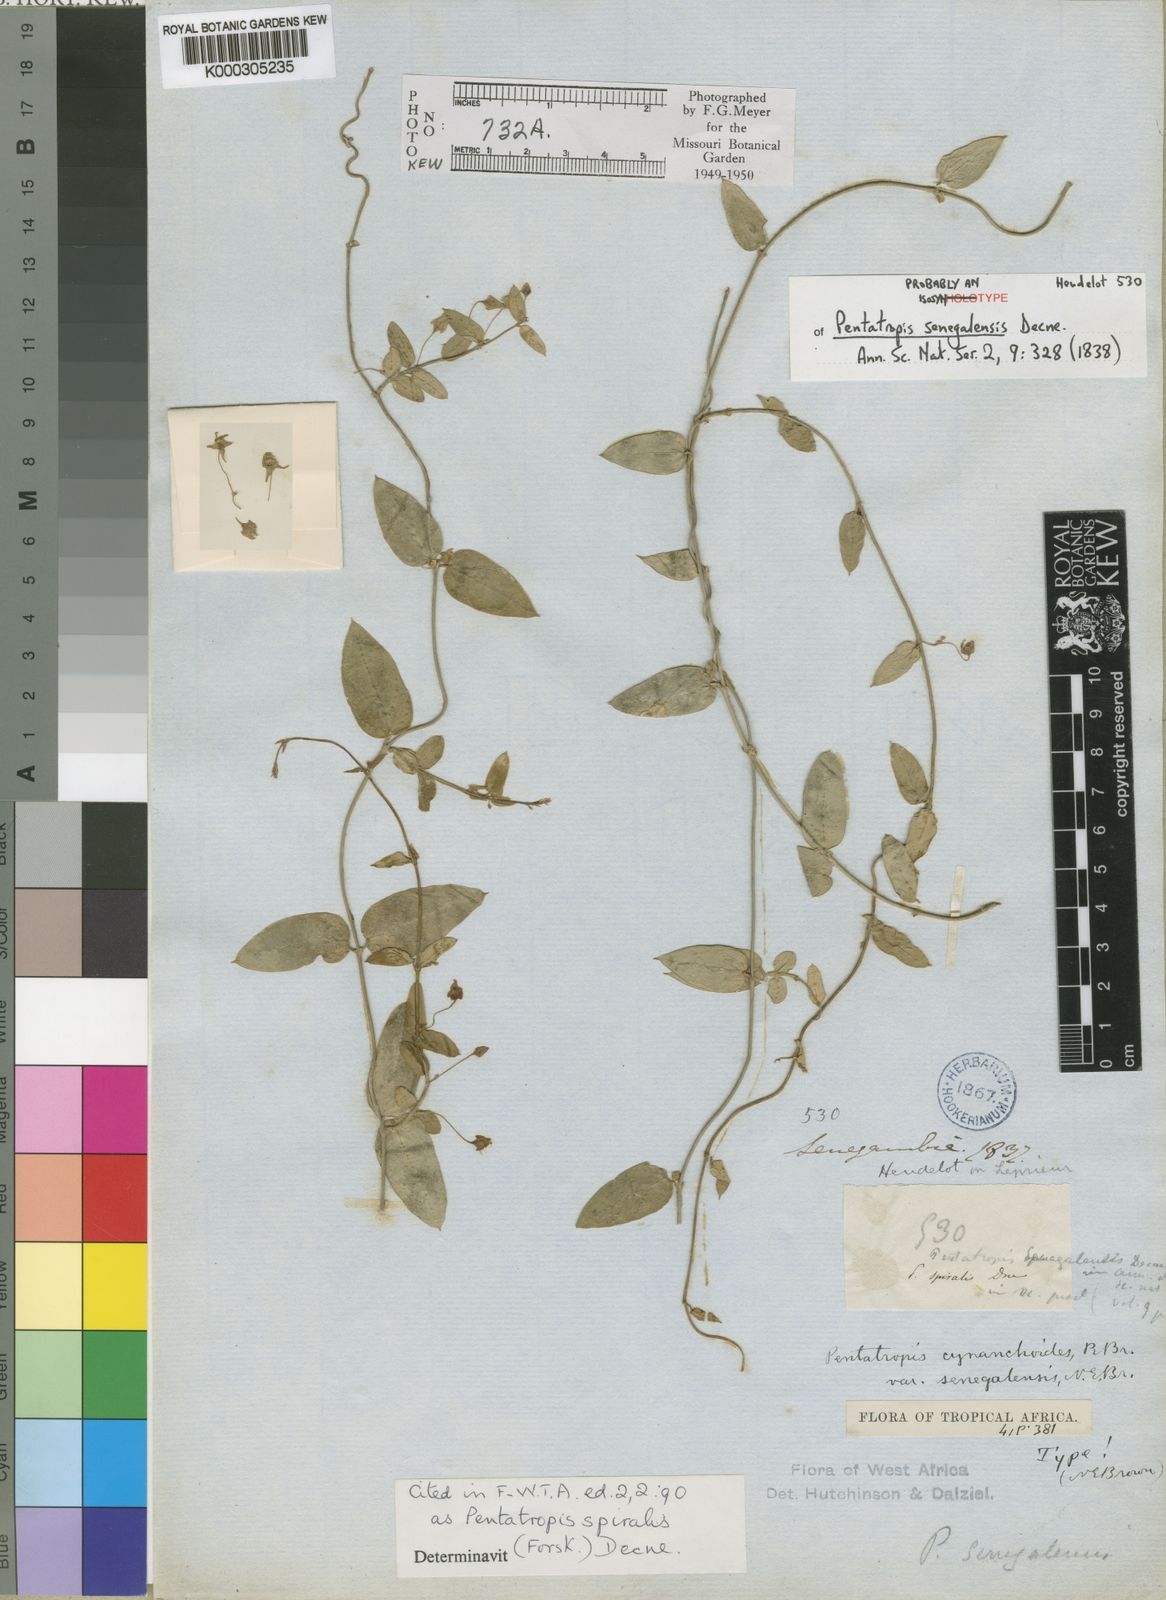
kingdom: Plantae
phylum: Tracheophyta
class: Magnoliopsida
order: Gentianales
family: Apocynaceae
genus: Pentatropis
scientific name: Pentatropis nivalis
